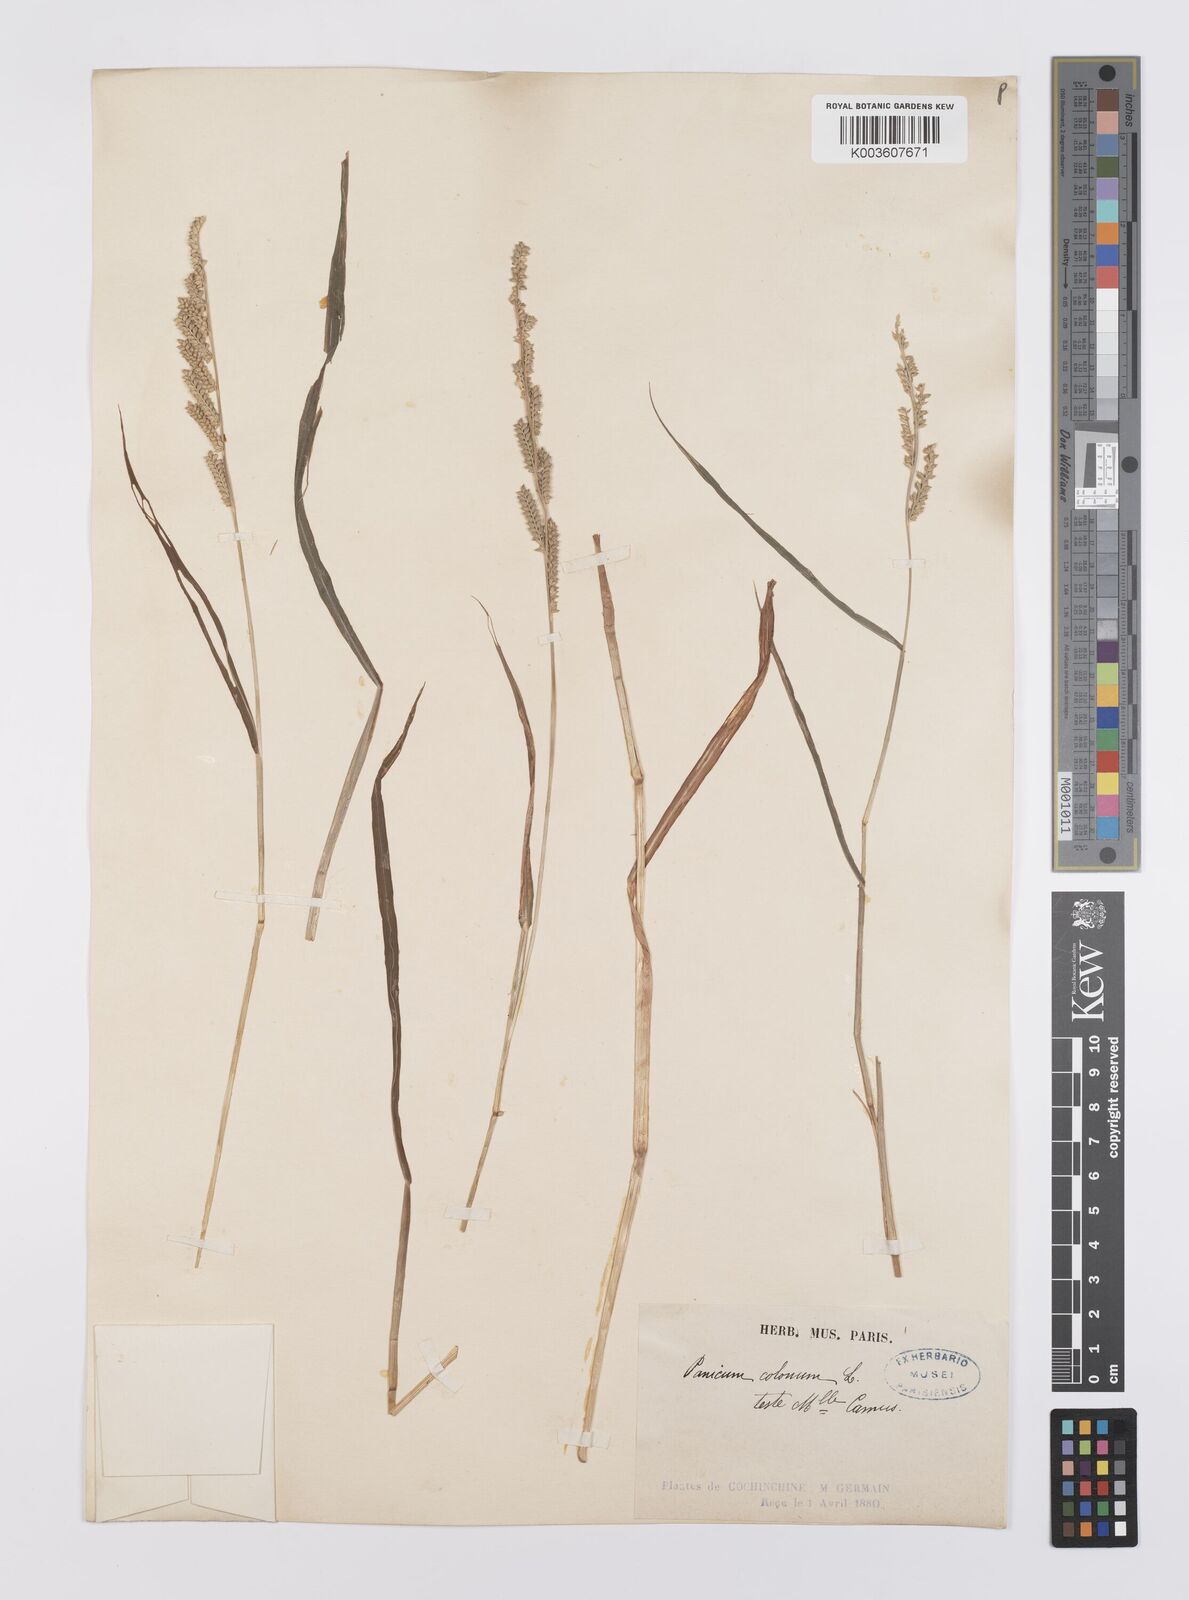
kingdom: Plantae
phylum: Tracheophyta
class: Liliopsida
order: Poales
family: Poaceae
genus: Echinochloa
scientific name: Echinochloa colonum
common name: Jungle rice
